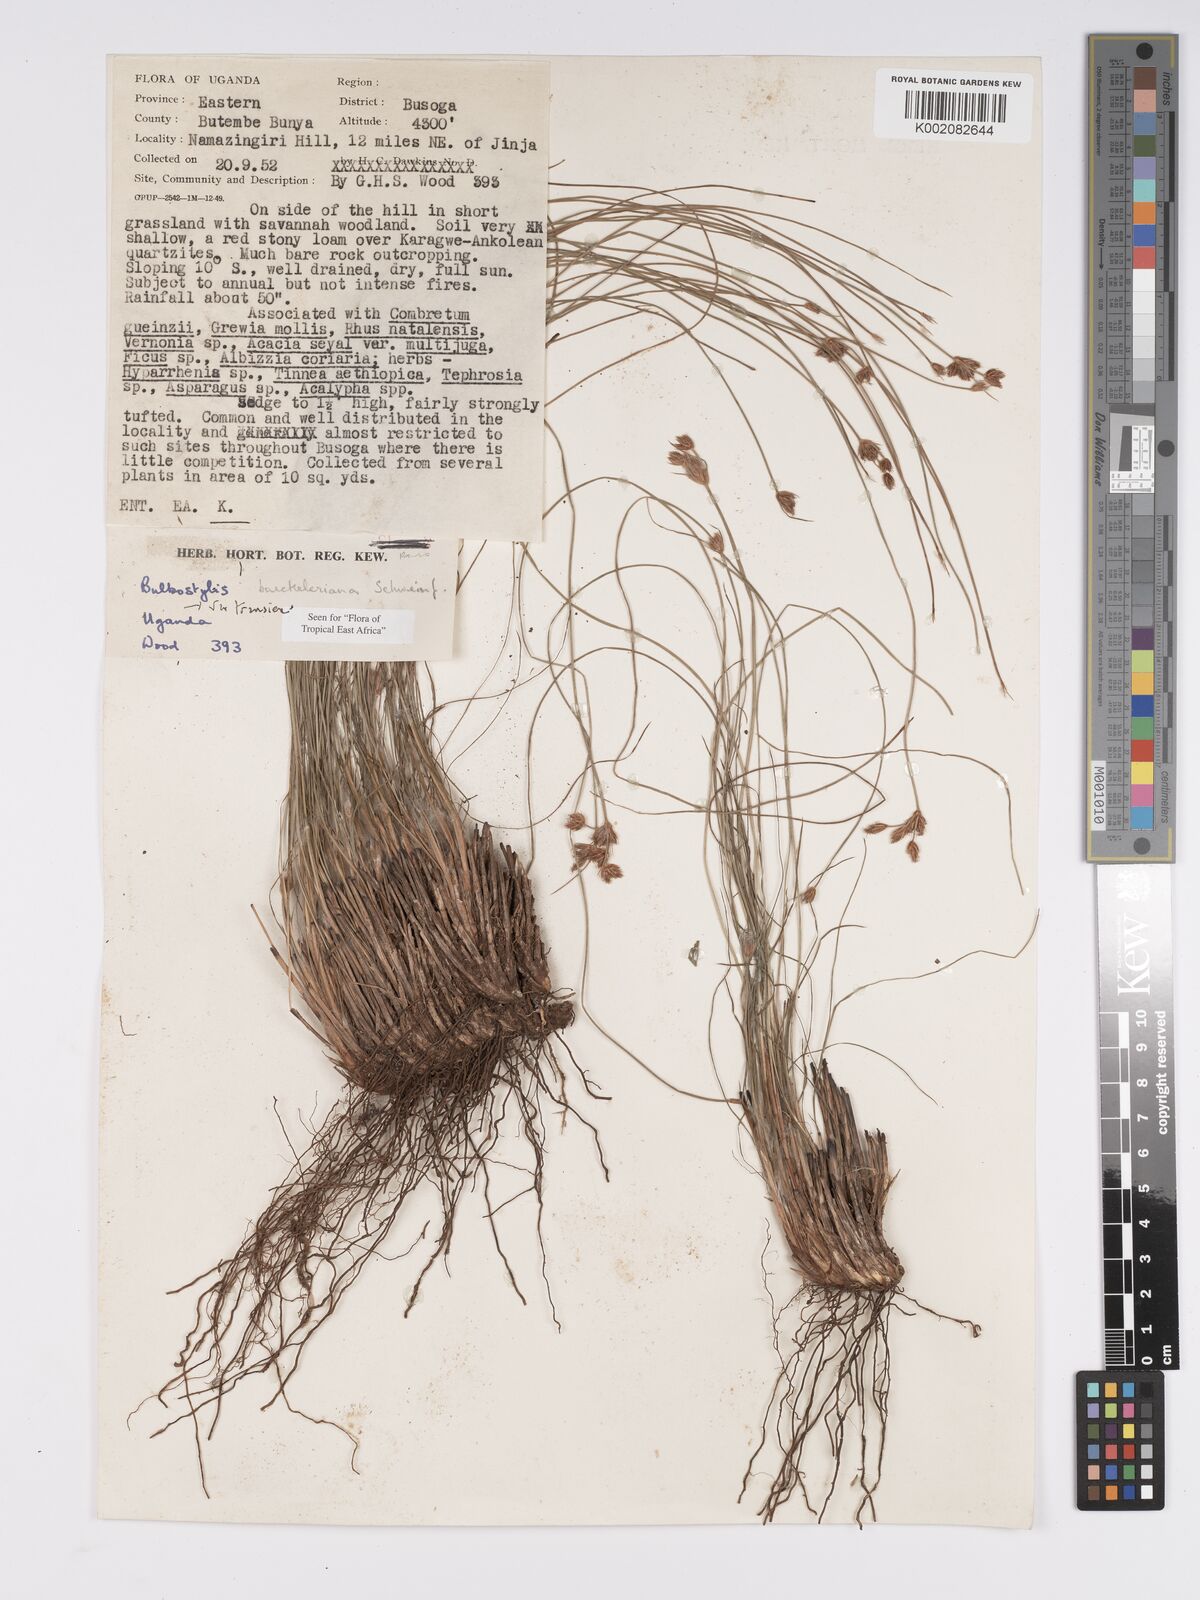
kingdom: Plantae
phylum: Tracheophyta
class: Liliopsida
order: Poales
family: Cyperaceae
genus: Bulbostylis
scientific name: Bulbostylis boeckeleriana
